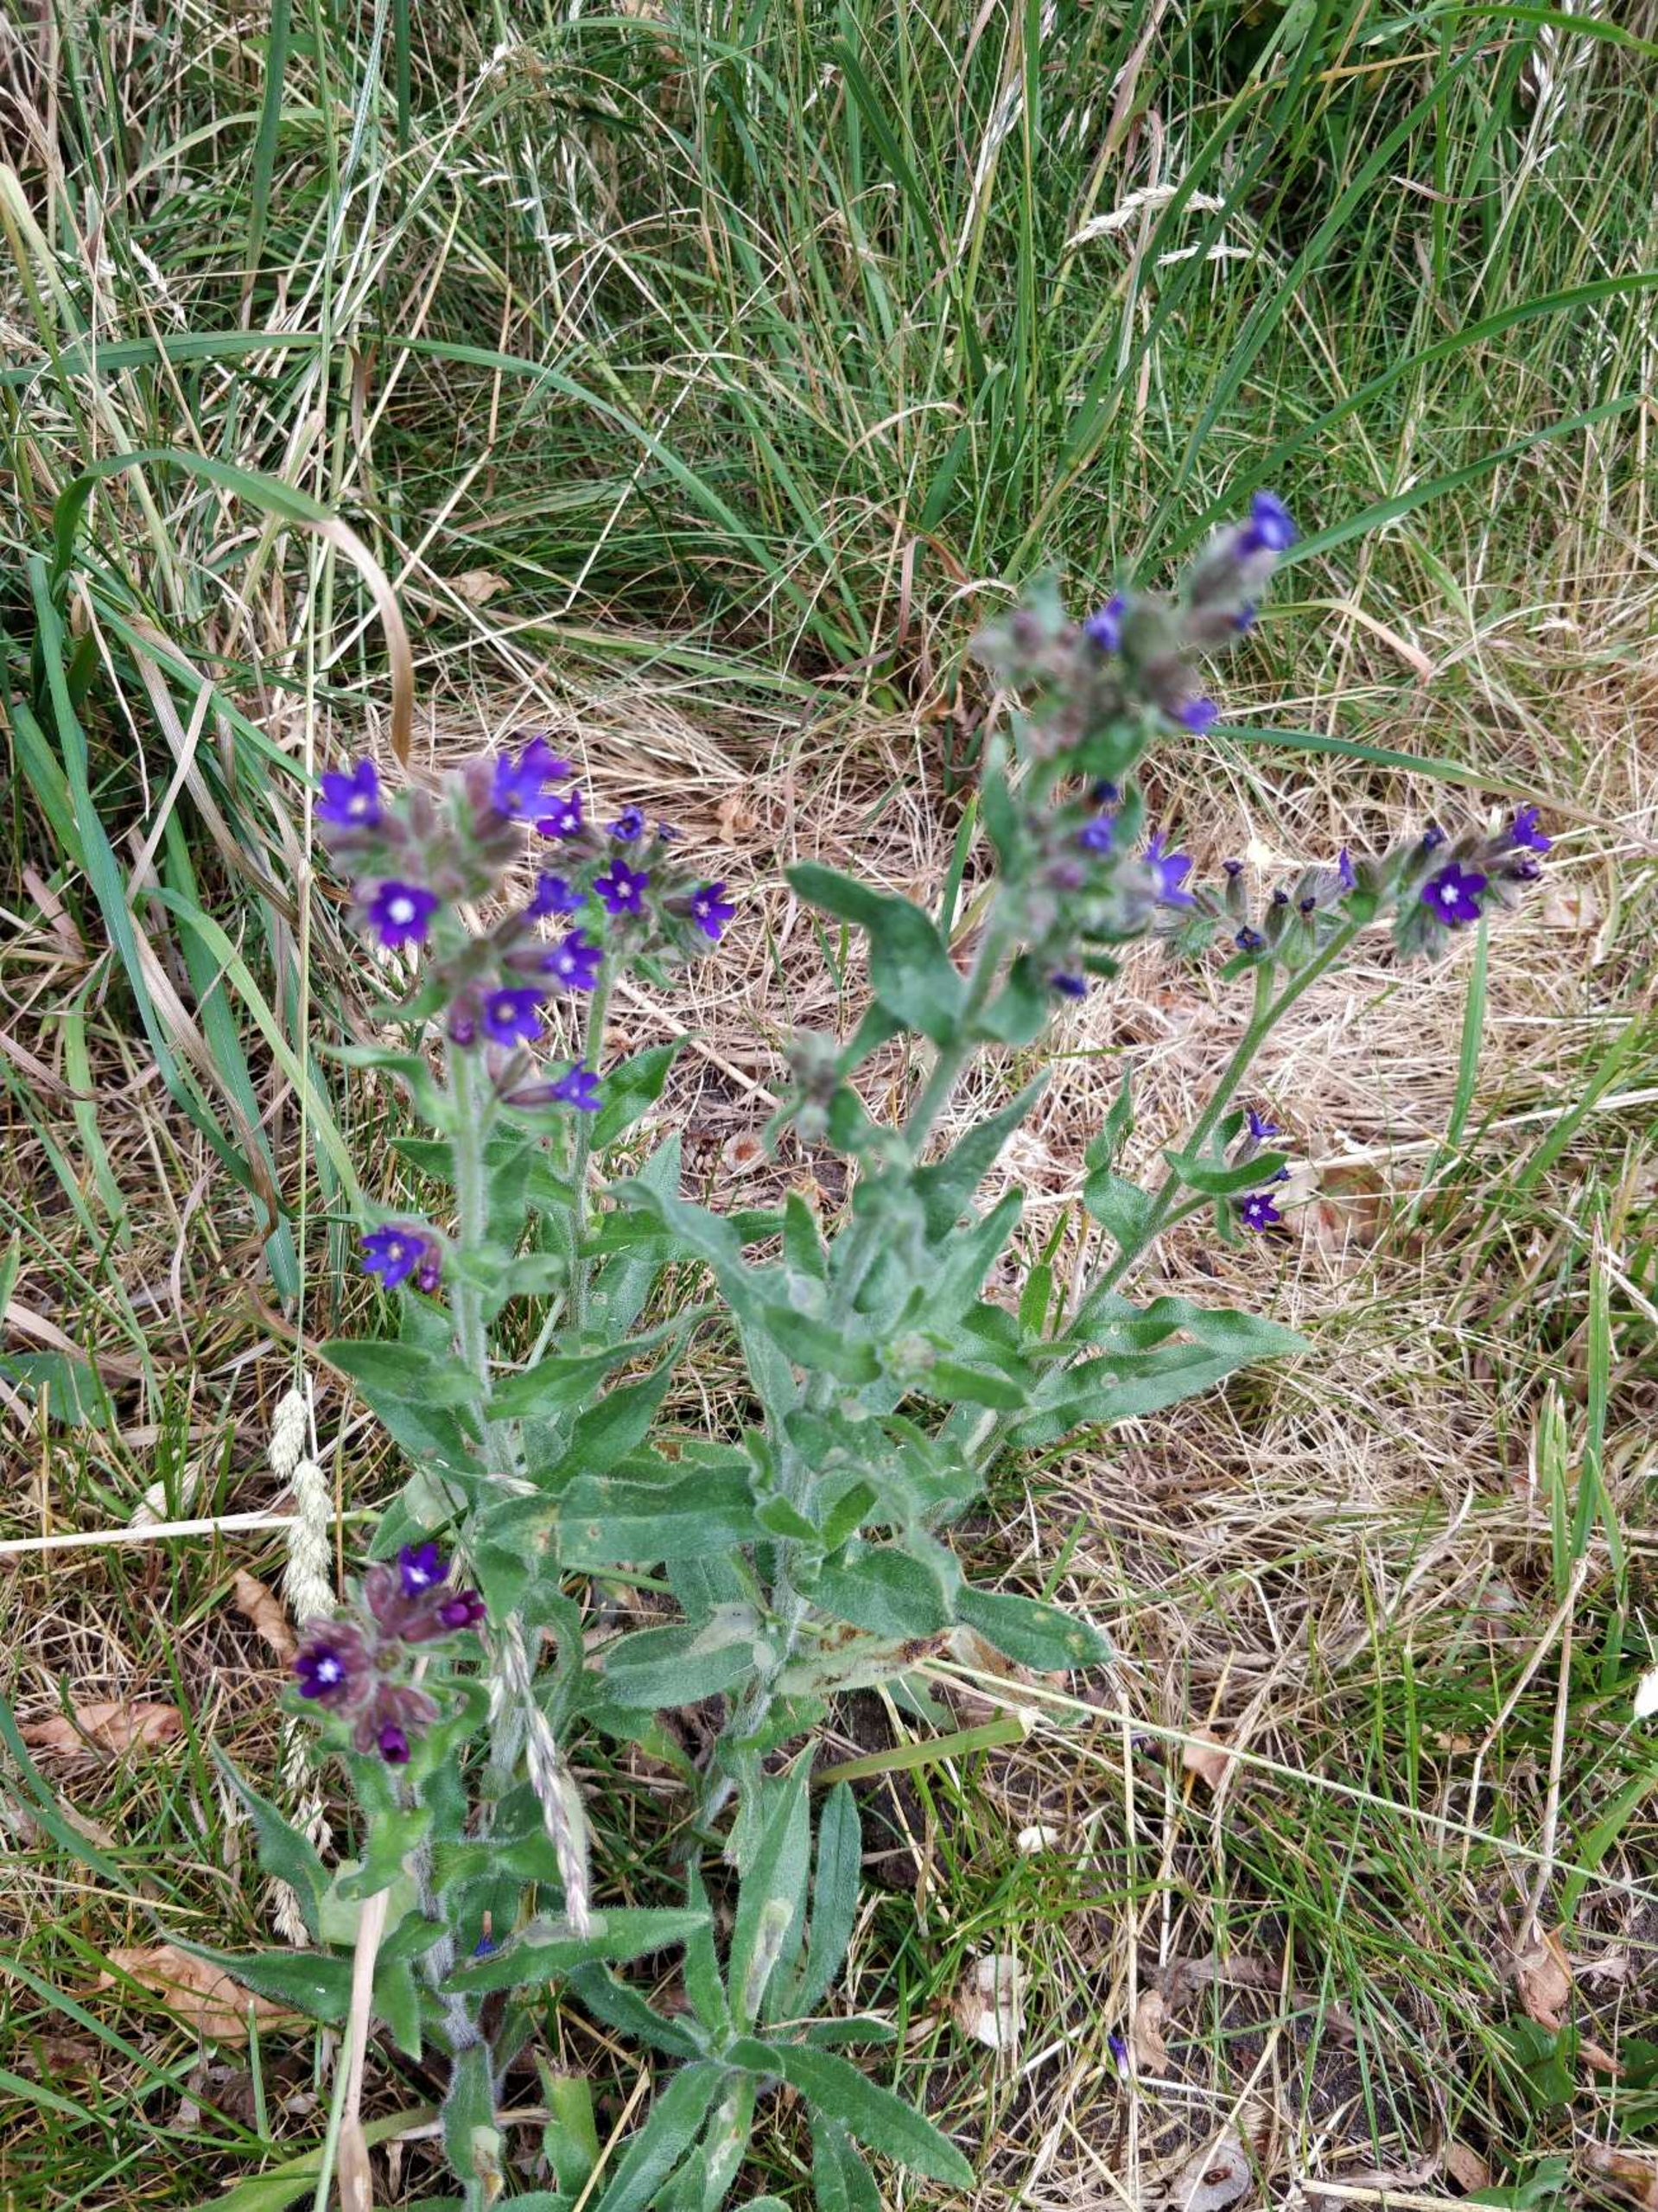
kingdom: Plantae
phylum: Tracheophyta
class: Magnoliopsida
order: Boraginales
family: Boraginaceae
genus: Anchusa
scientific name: Anchusa officinalis
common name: Læge-oksetunge
